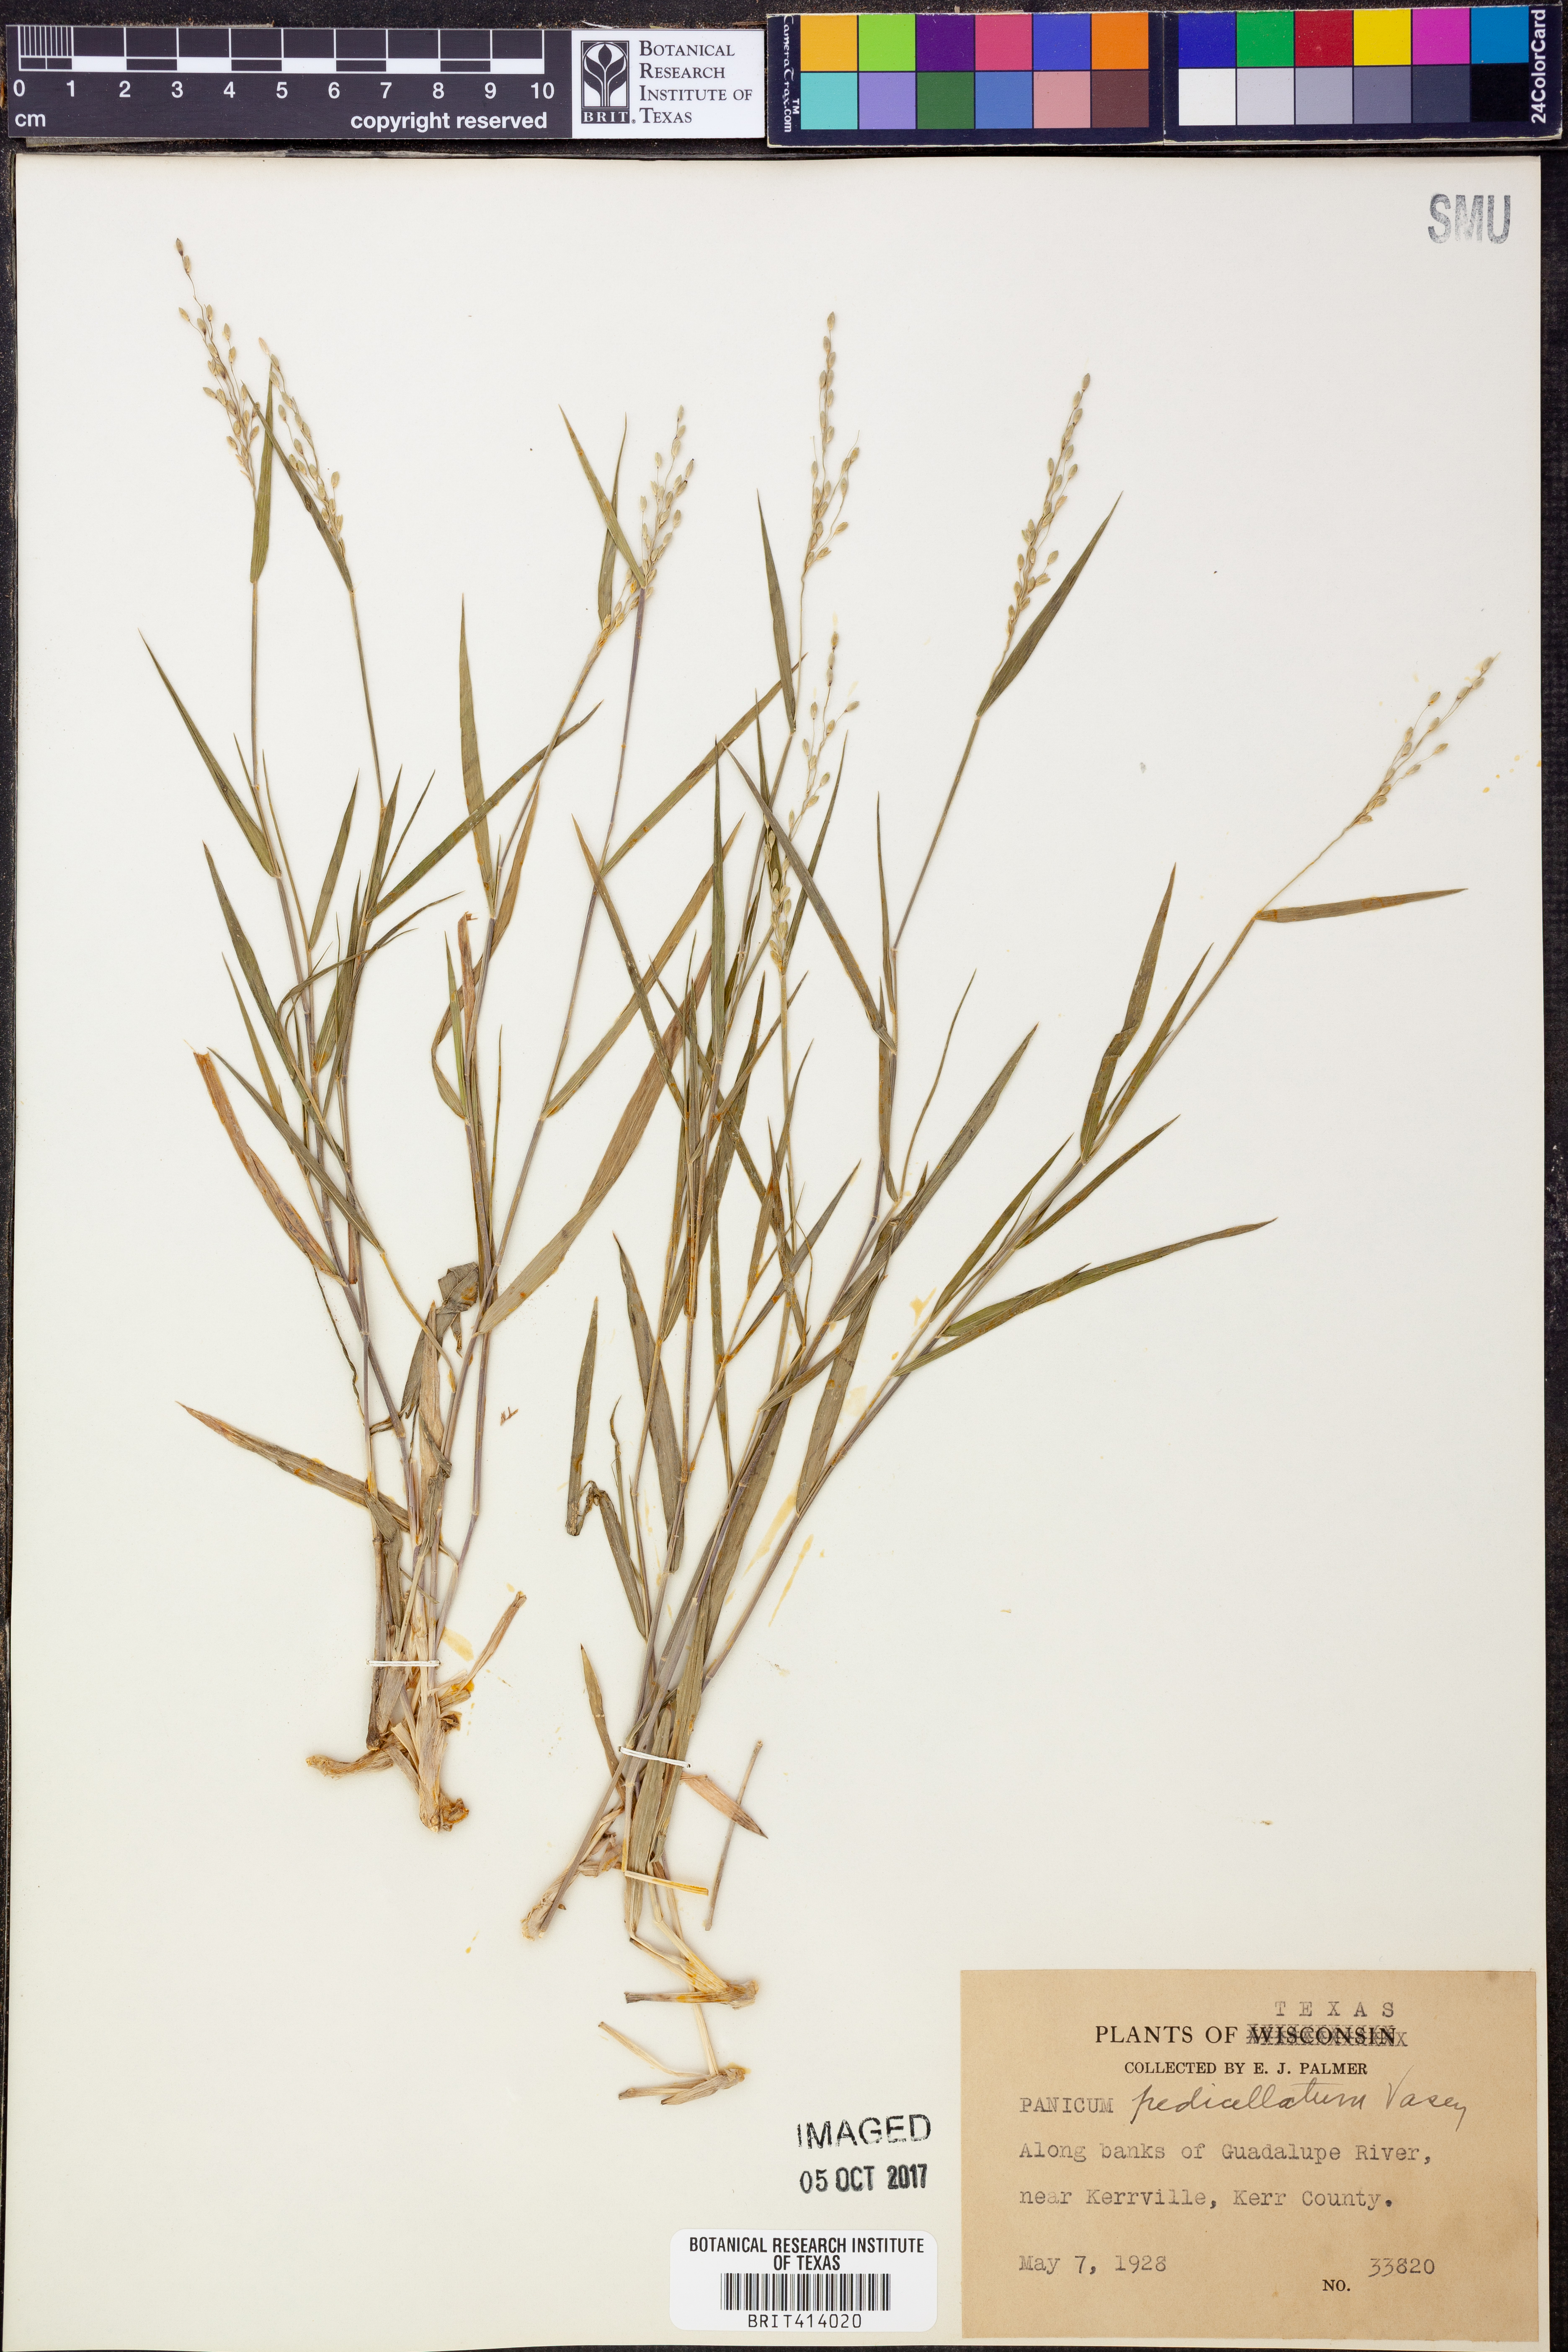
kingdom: Plantae
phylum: Tracheophyta
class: Liliopsida
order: Poales
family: Poaceae
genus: Dichanthelium
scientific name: Dichanthelium transiens
